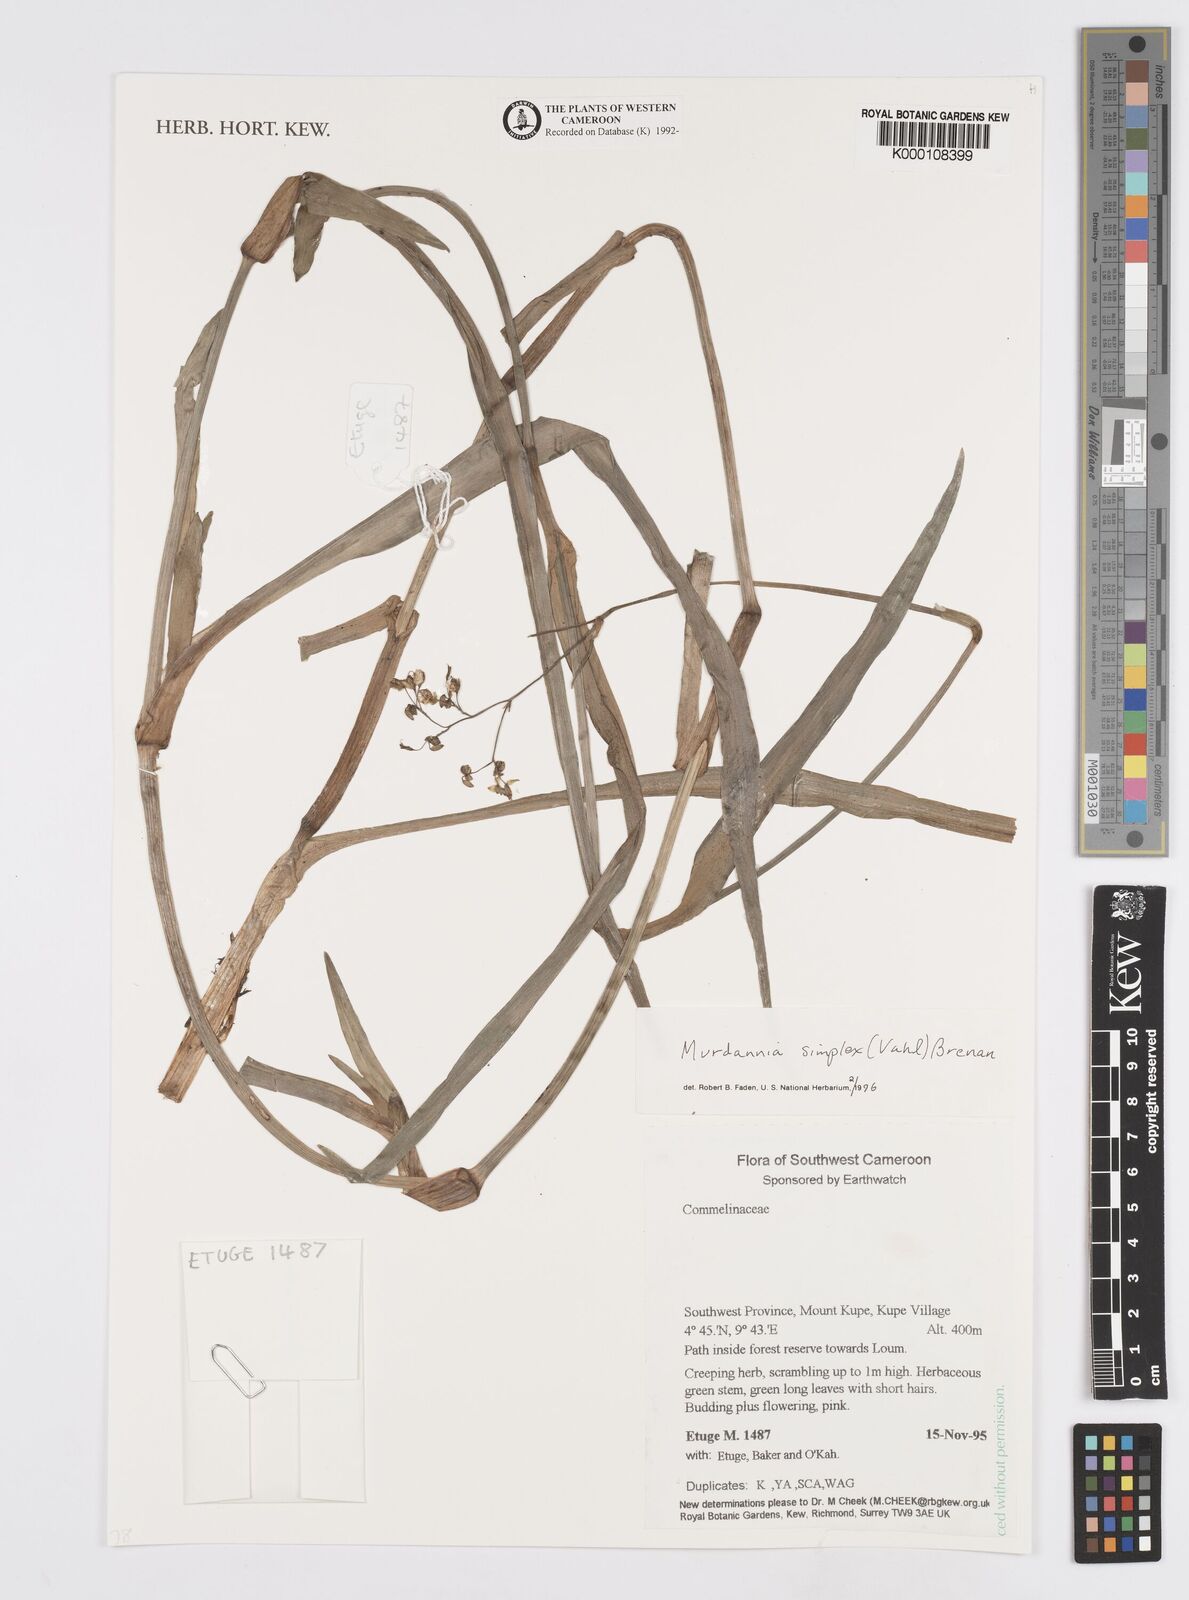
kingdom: Plantae
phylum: Tracheophyta
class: Liliopsida
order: Commelinales
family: Commelinaceae
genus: Murdannia
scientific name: Murdannia simplex
